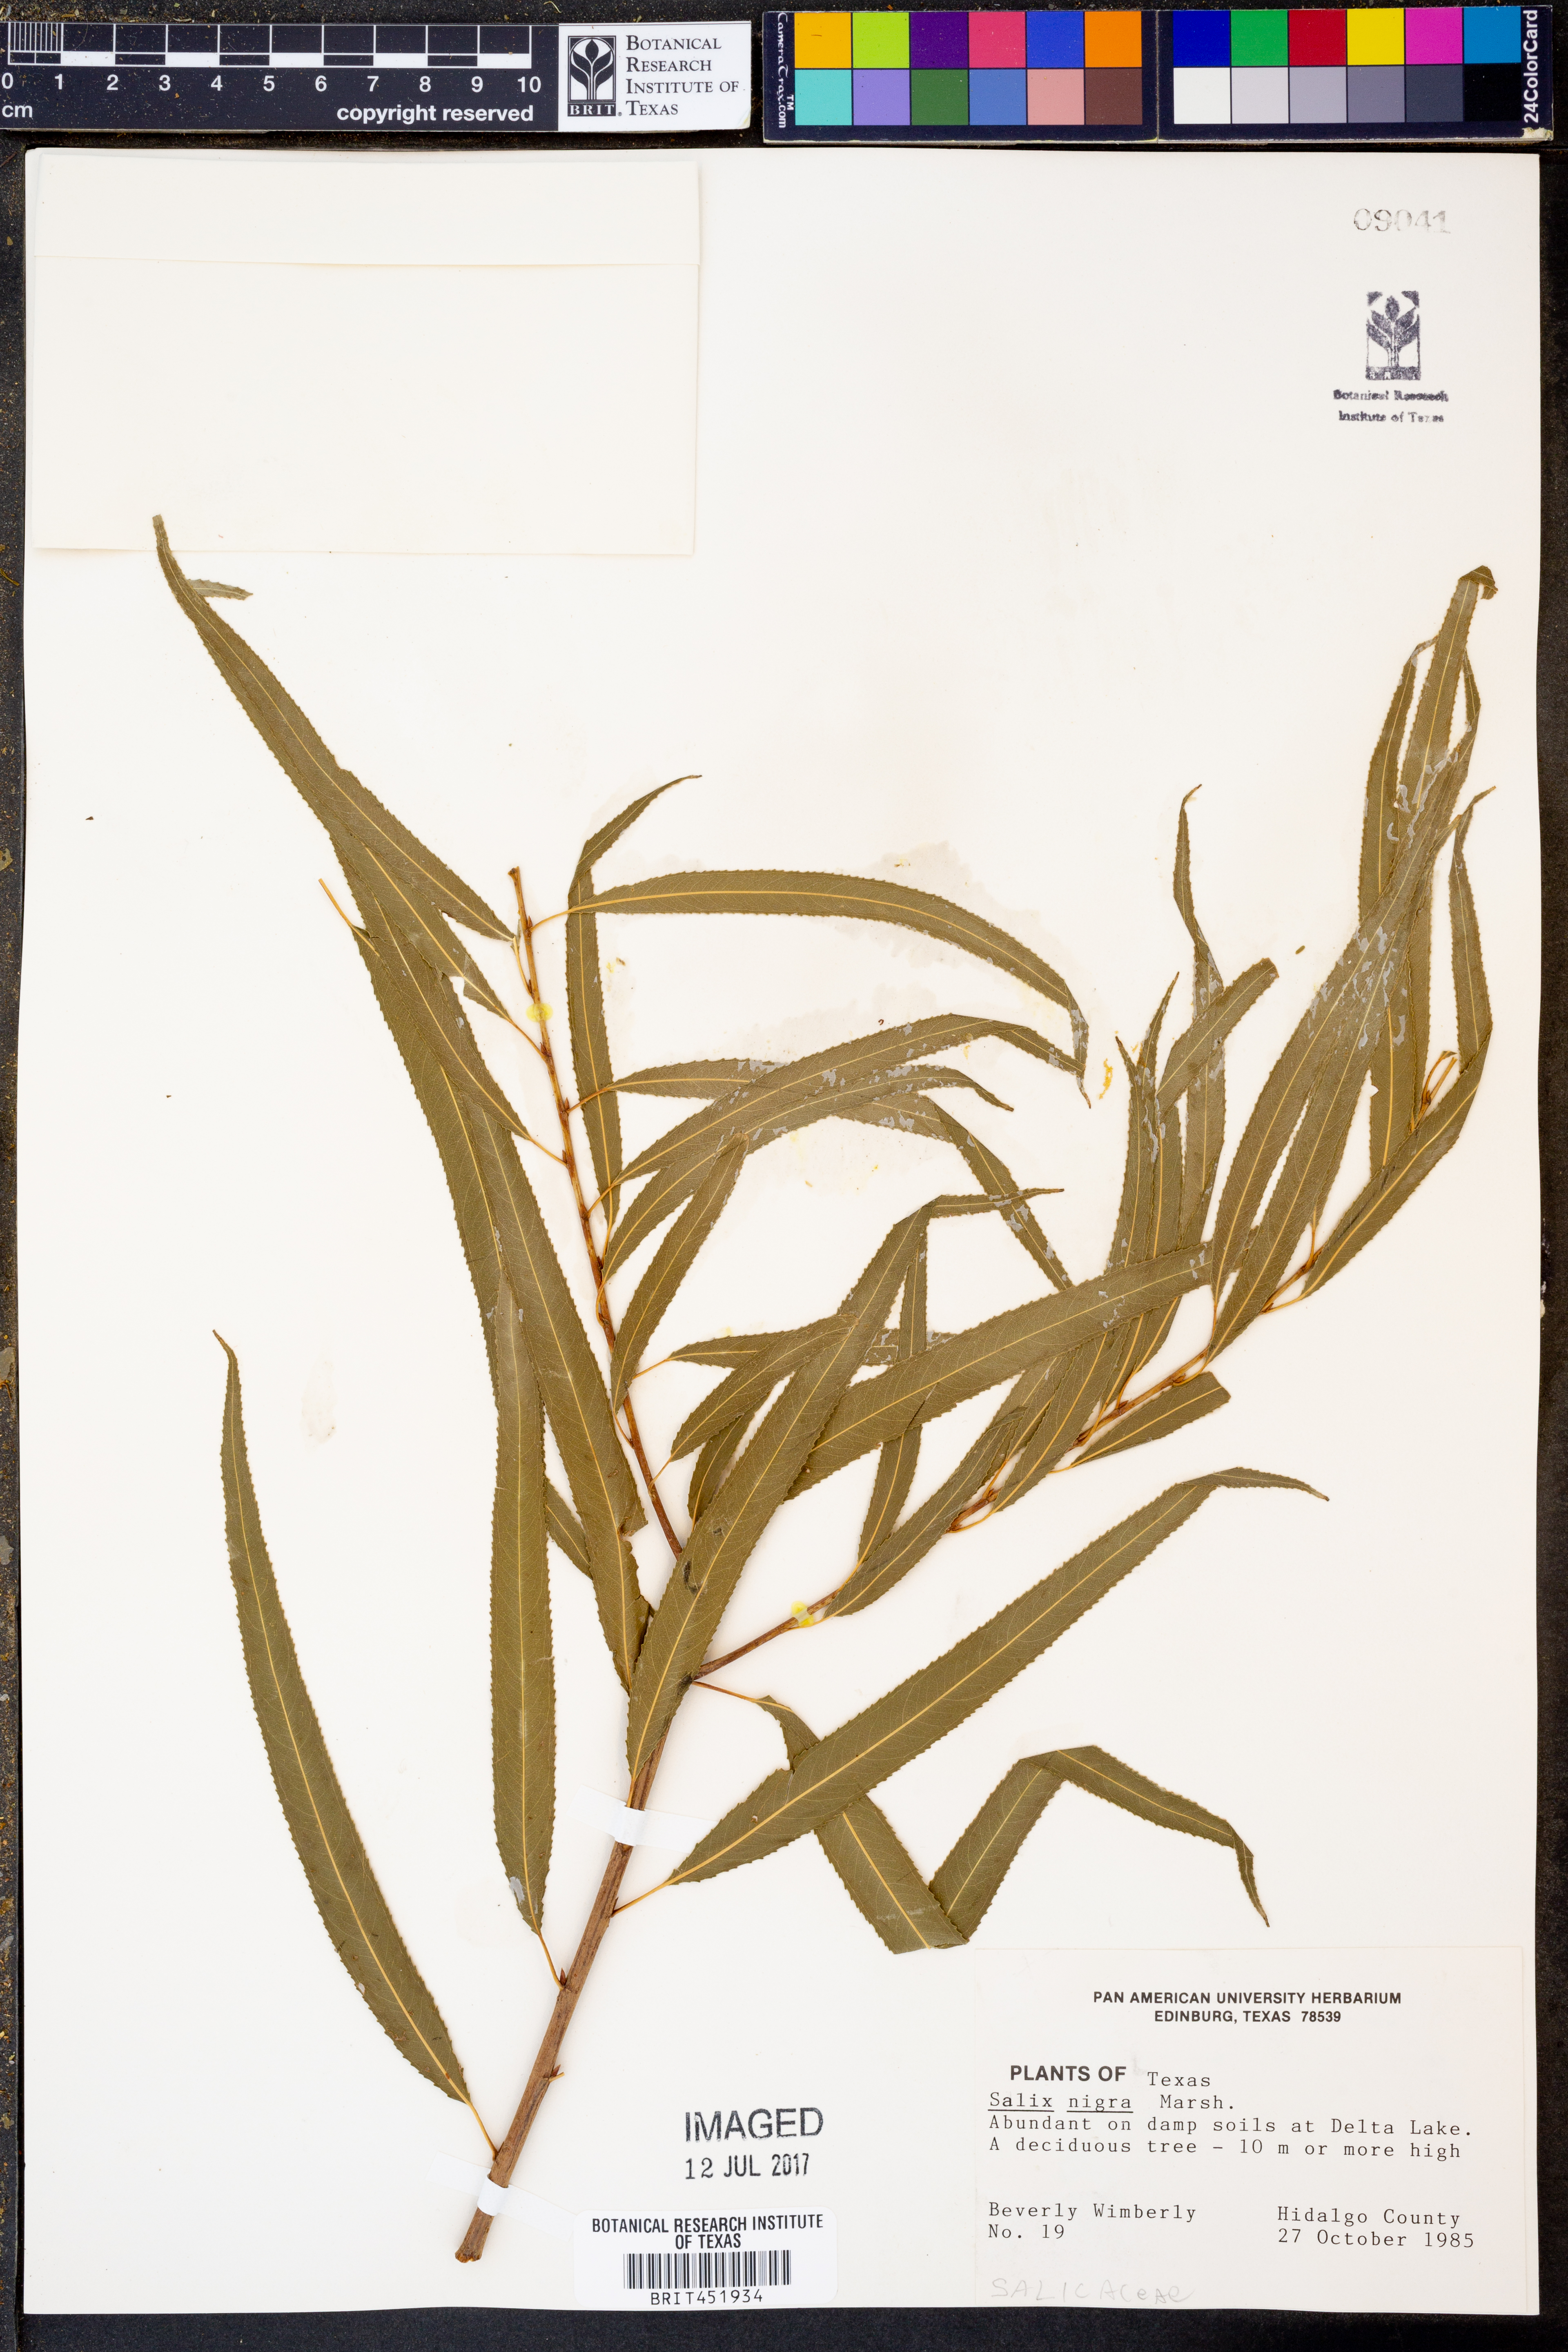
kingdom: Plantae
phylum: Tracheophyta
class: Magnoliopsida
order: Malpighiales
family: Salicaceae
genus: Salix
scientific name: Salix nigra
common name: Black willow
